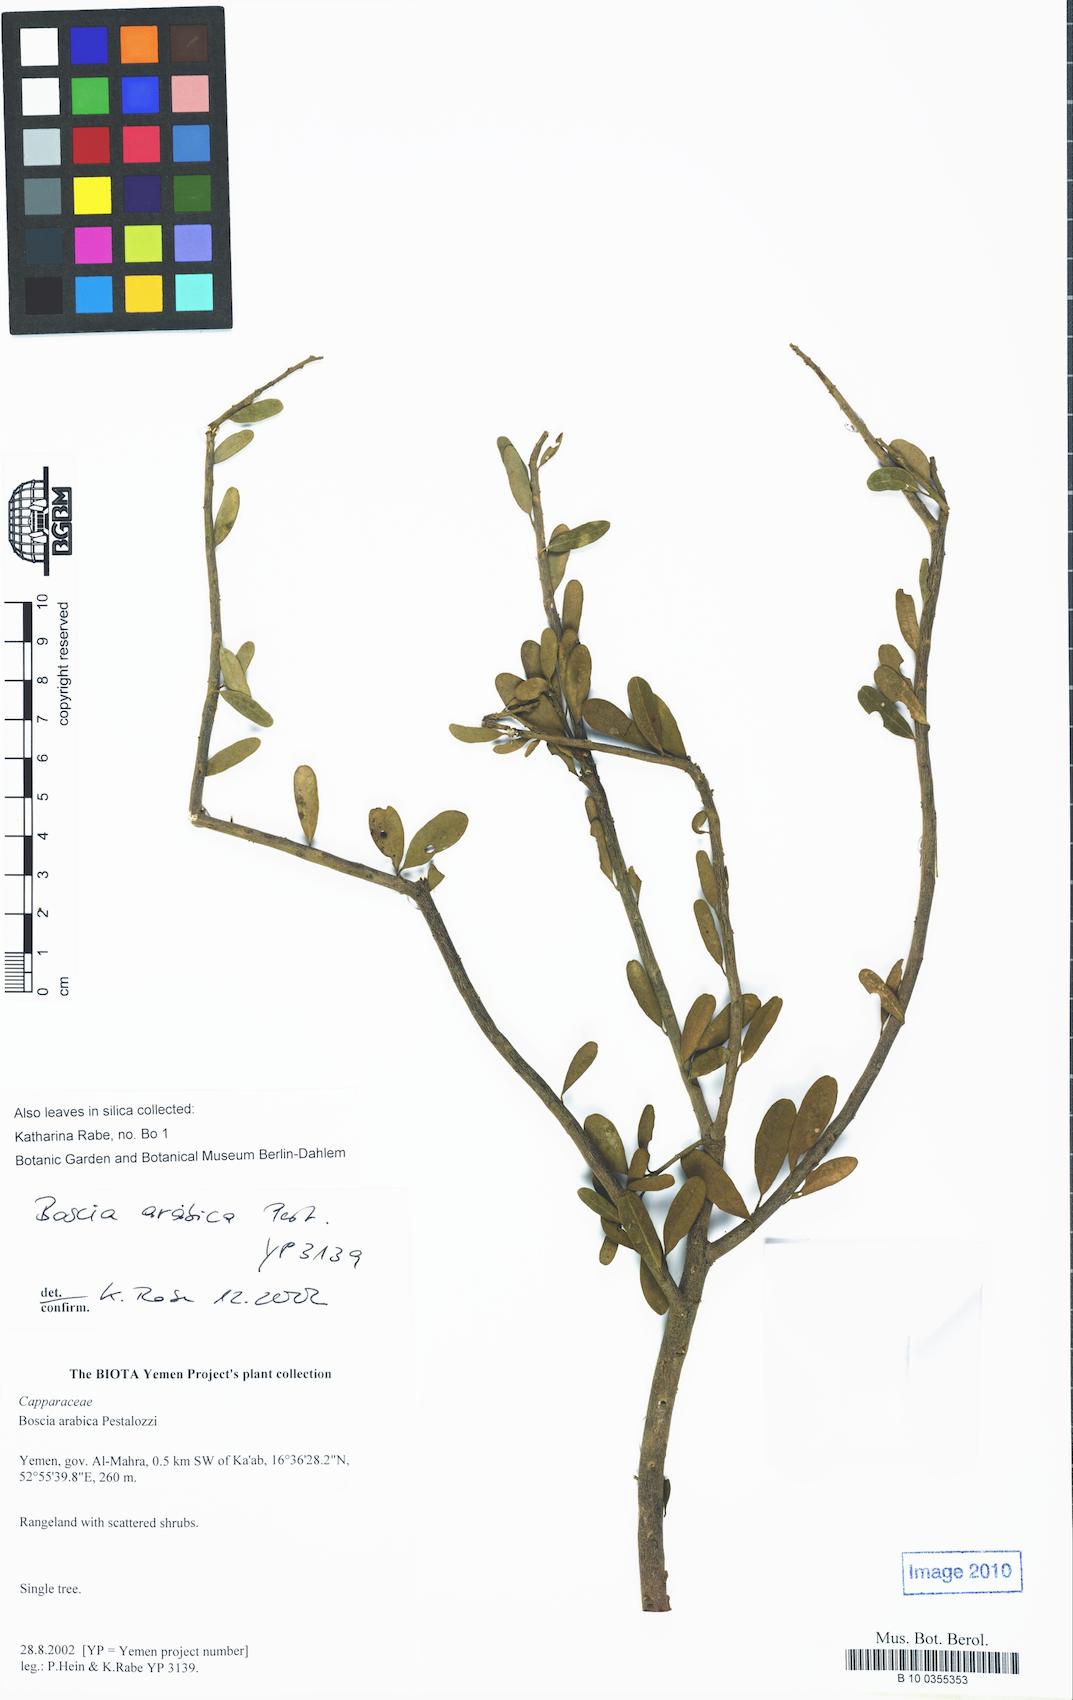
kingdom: Plantae
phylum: Tracheophyta
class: Magnoliopsida
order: Brassicales
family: Capparaceae
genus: Boscia
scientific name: Boscia arabica
